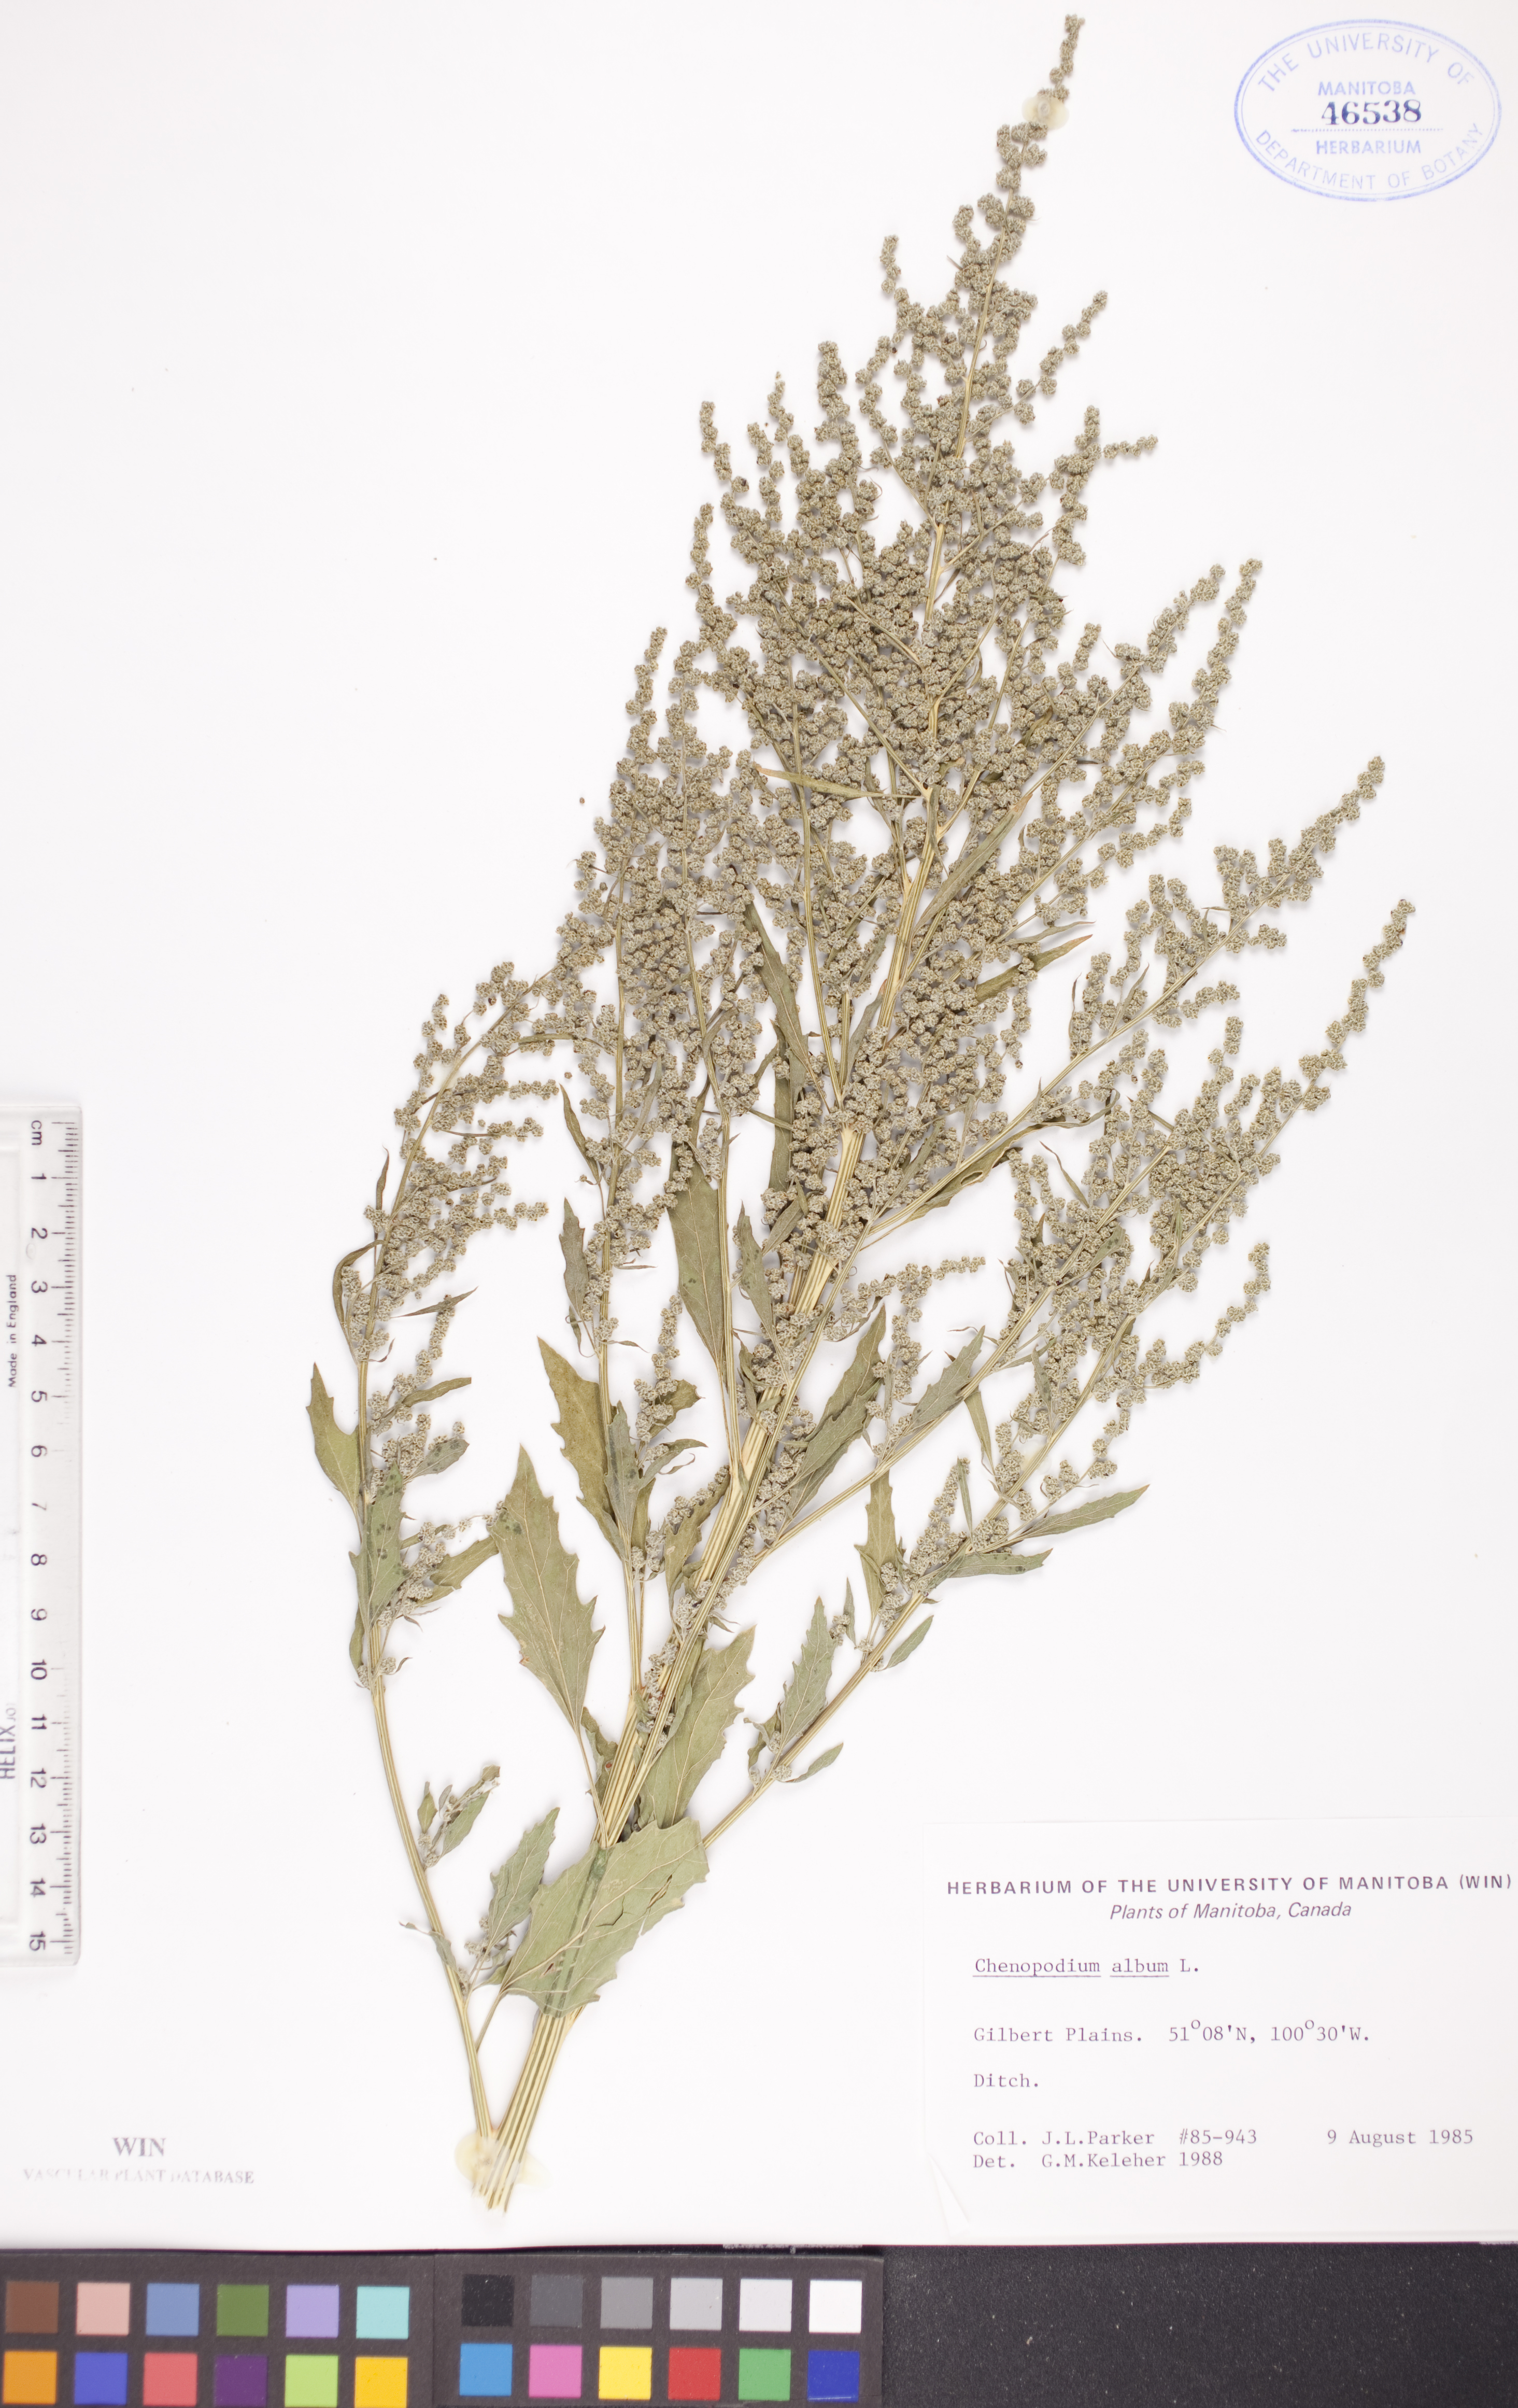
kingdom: Plantae
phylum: Tracheophyta
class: Magnoliopsida
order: Caryophyllales
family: Amaranthaceae
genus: Chenopodium
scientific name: Chenopodium album
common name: Fat-hen
